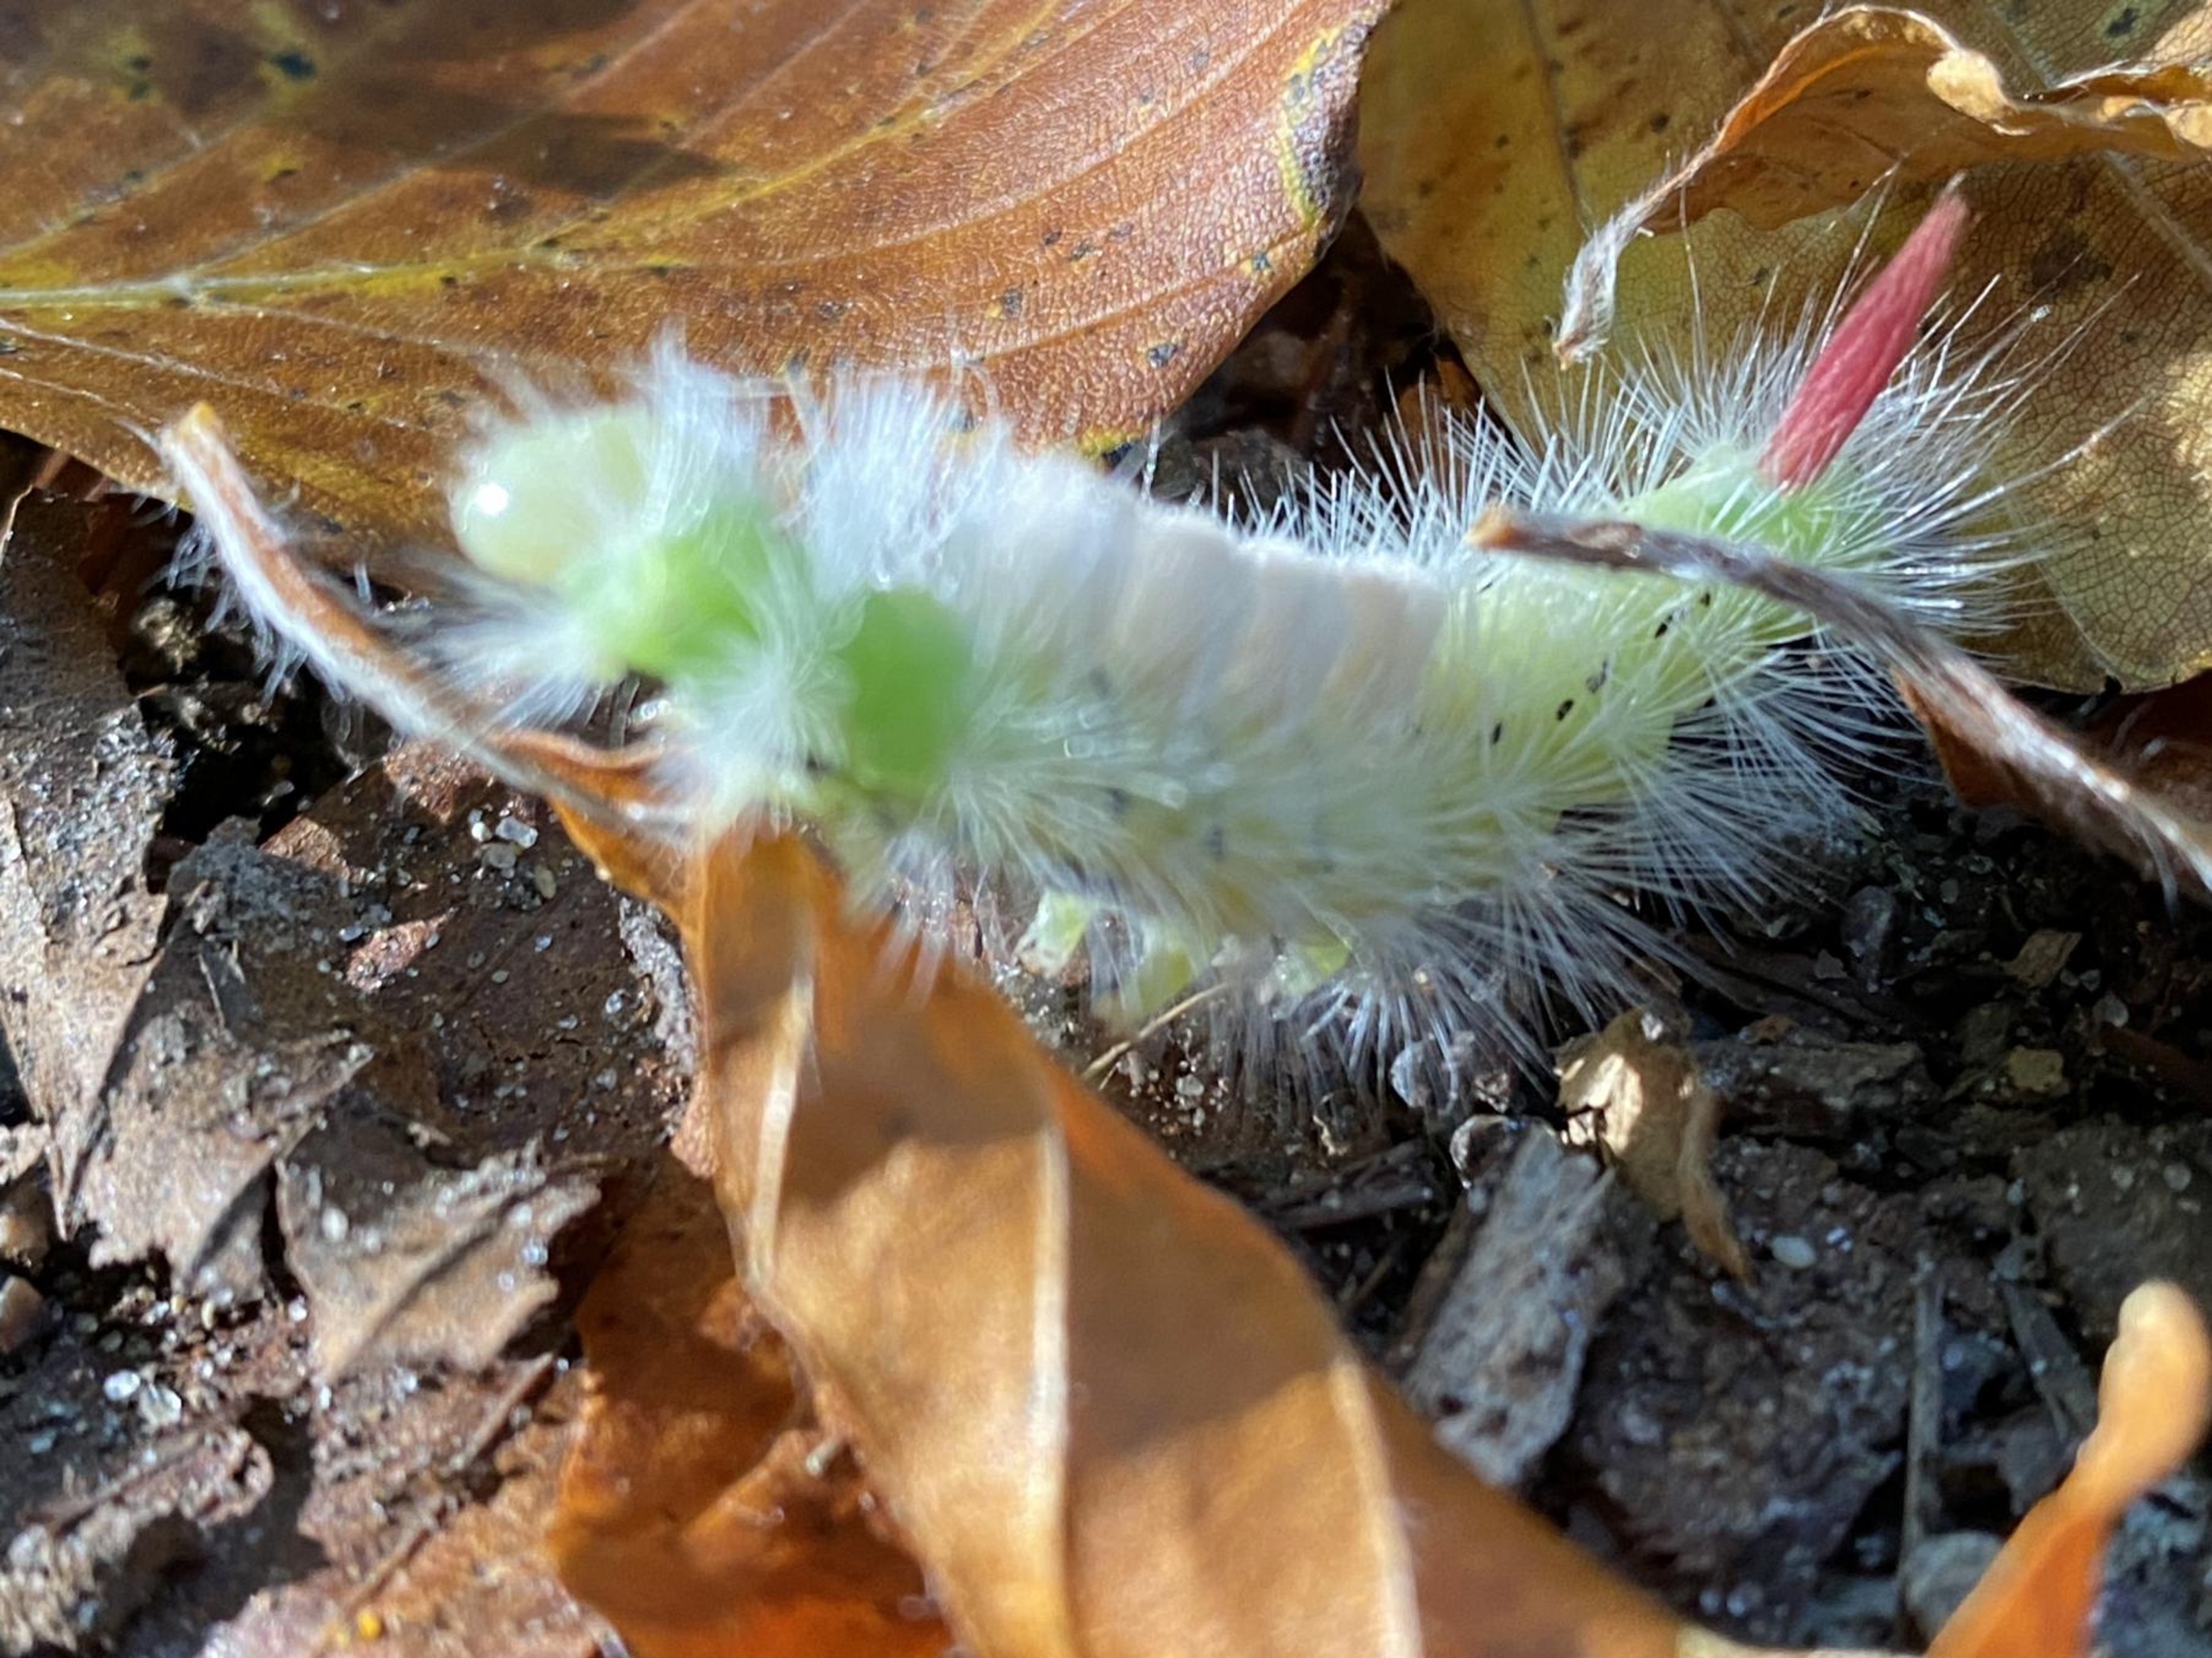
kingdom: Animalia
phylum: Arthropoda
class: Insecta
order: Lepidoptera
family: Erebidae
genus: Calliteara
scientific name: Calliteara pudibunda
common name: Bøgenonne
